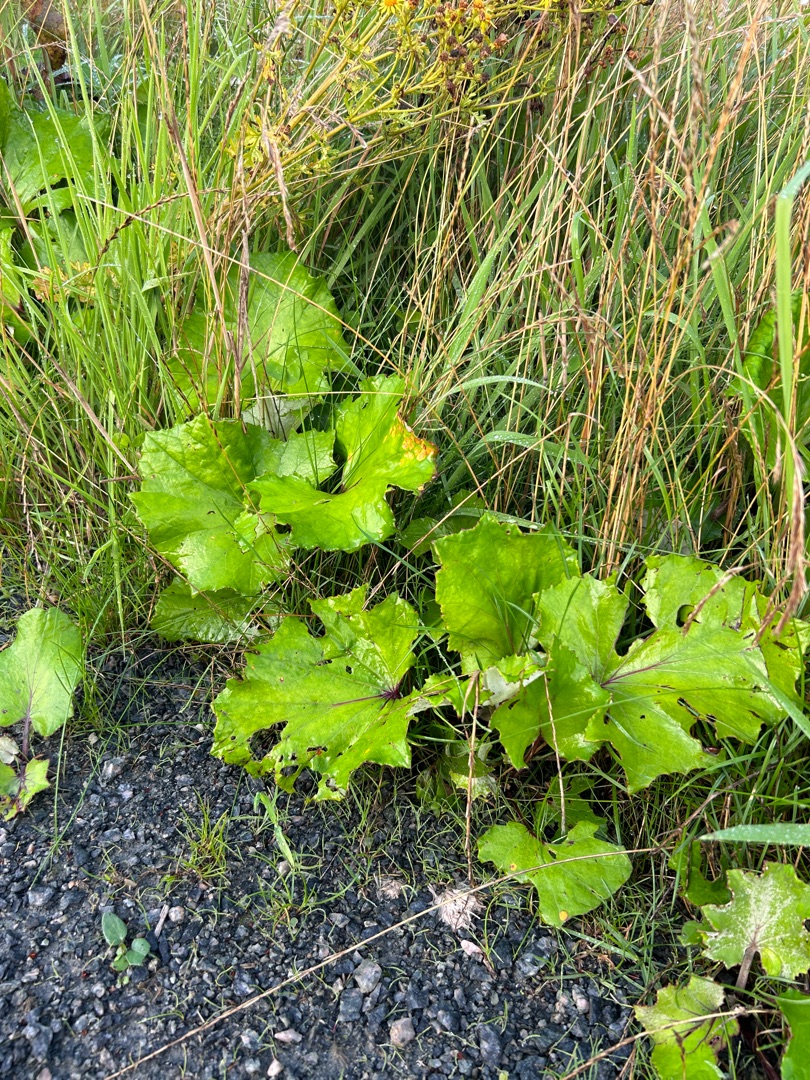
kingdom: Plantae
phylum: Tracheophyta
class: Magnoliopsida
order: Asterales
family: Asteraceae
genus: Tussilago
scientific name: Tussilago farfara
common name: Følfod
